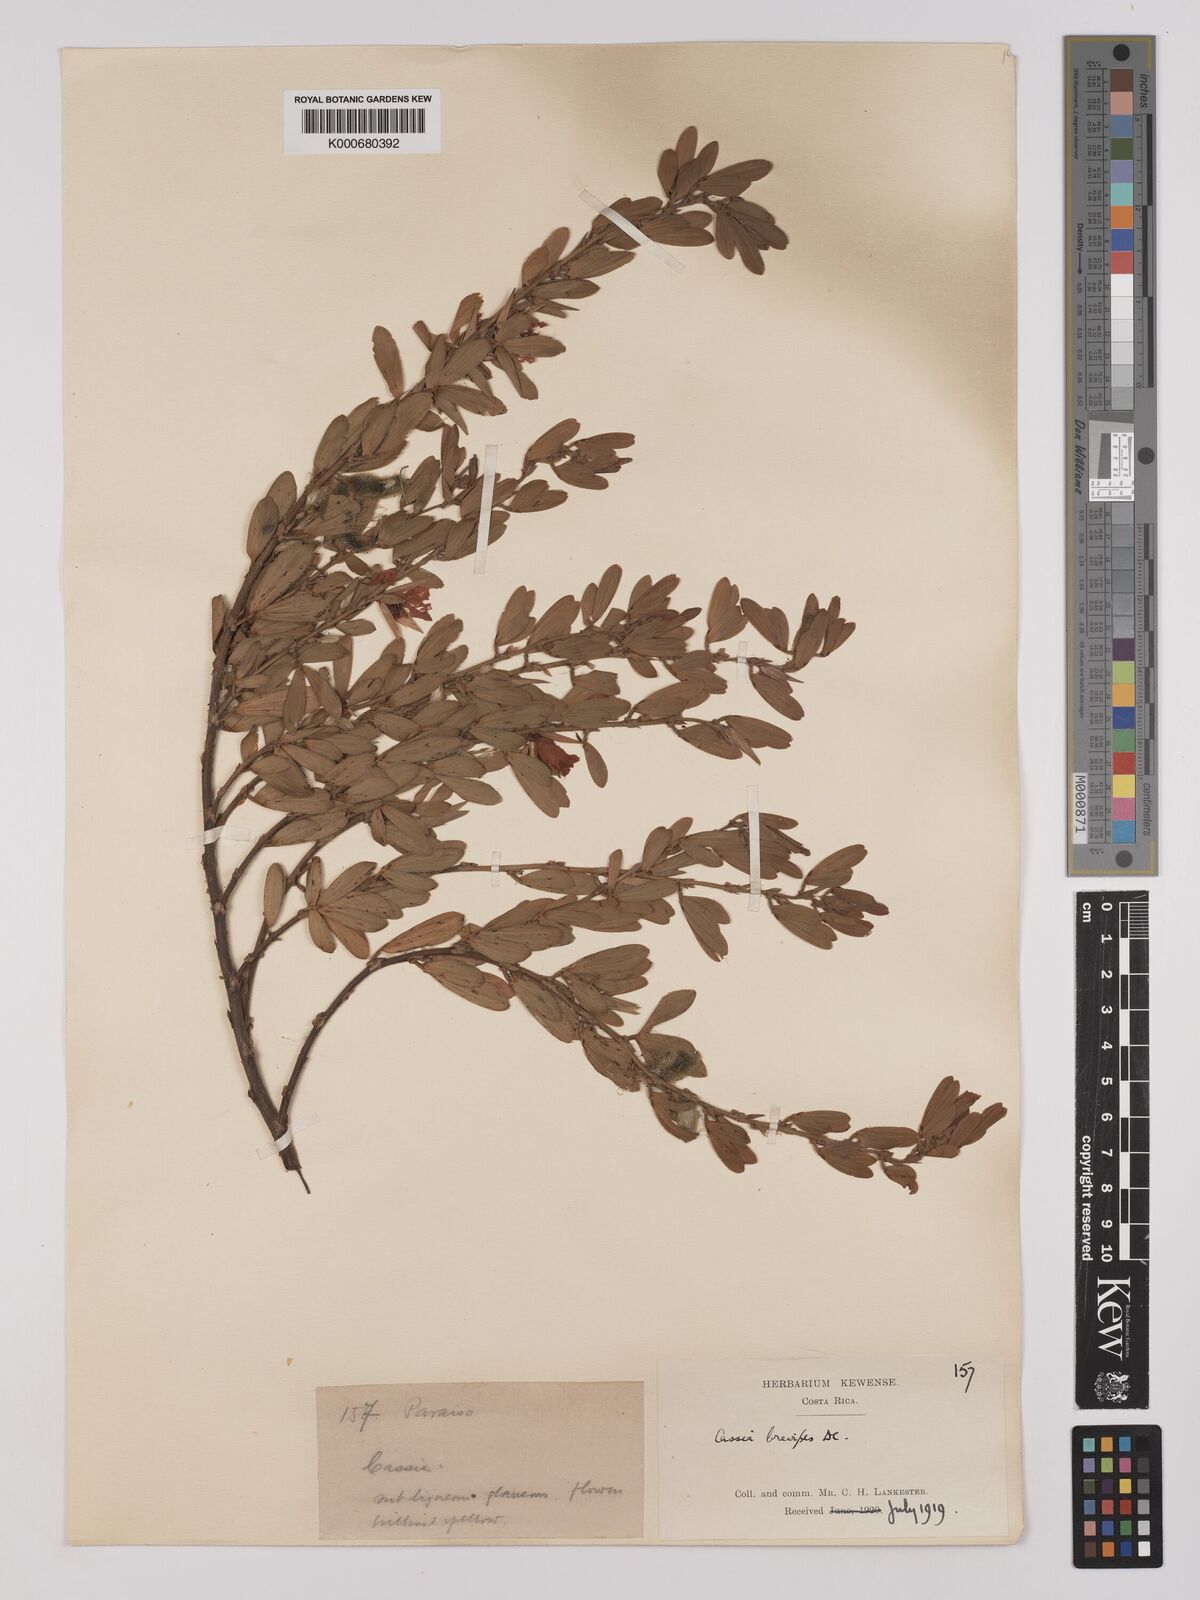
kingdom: Plantae
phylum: Tracheophyta
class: Magnoliopsida
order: Fabales
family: Fabaceae
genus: Chamaecrista
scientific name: Chamaecrista desvauxii
